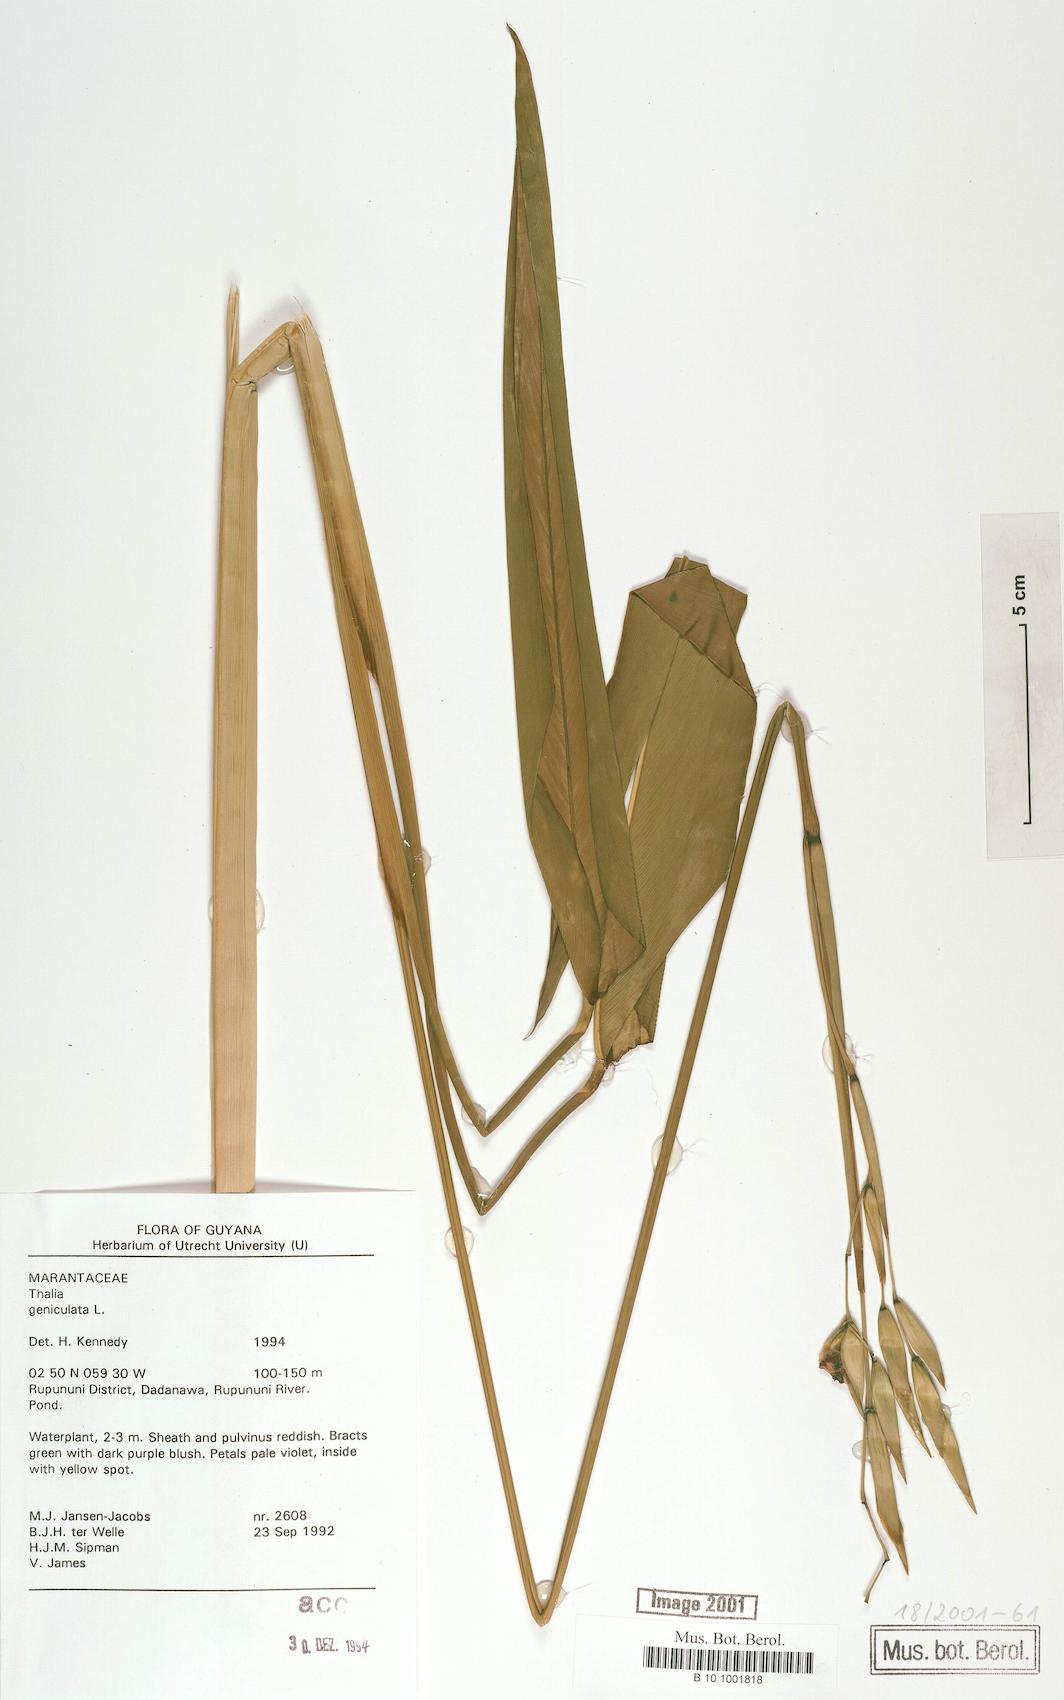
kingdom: Plantae
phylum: Tracheophyta
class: Liliopsida
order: Zingiberales
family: Marantaceae
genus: Thalia
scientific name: Thalia geniculata
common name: Arrowroot
